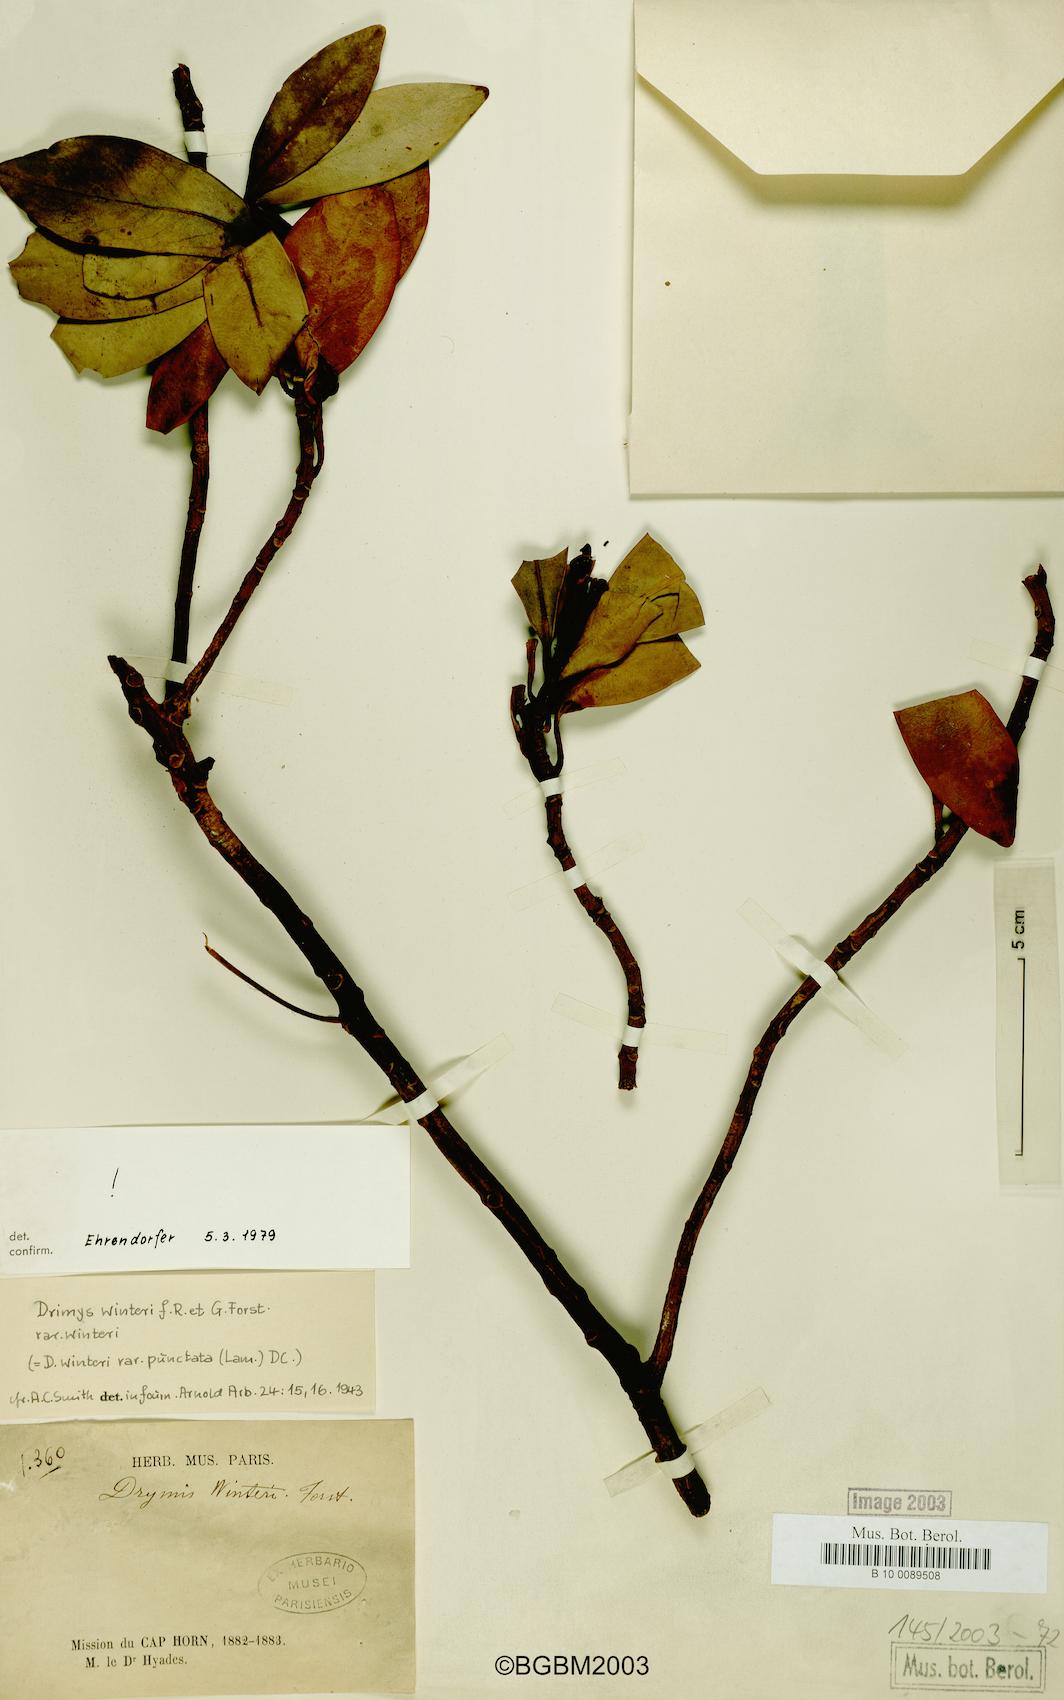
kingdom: Plantae
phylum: Tracheophyta
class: Magnoliopsida
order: Canellales
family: Winteraceae
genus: Drimys
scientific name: Drimys winteri
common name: Winter's-bark
